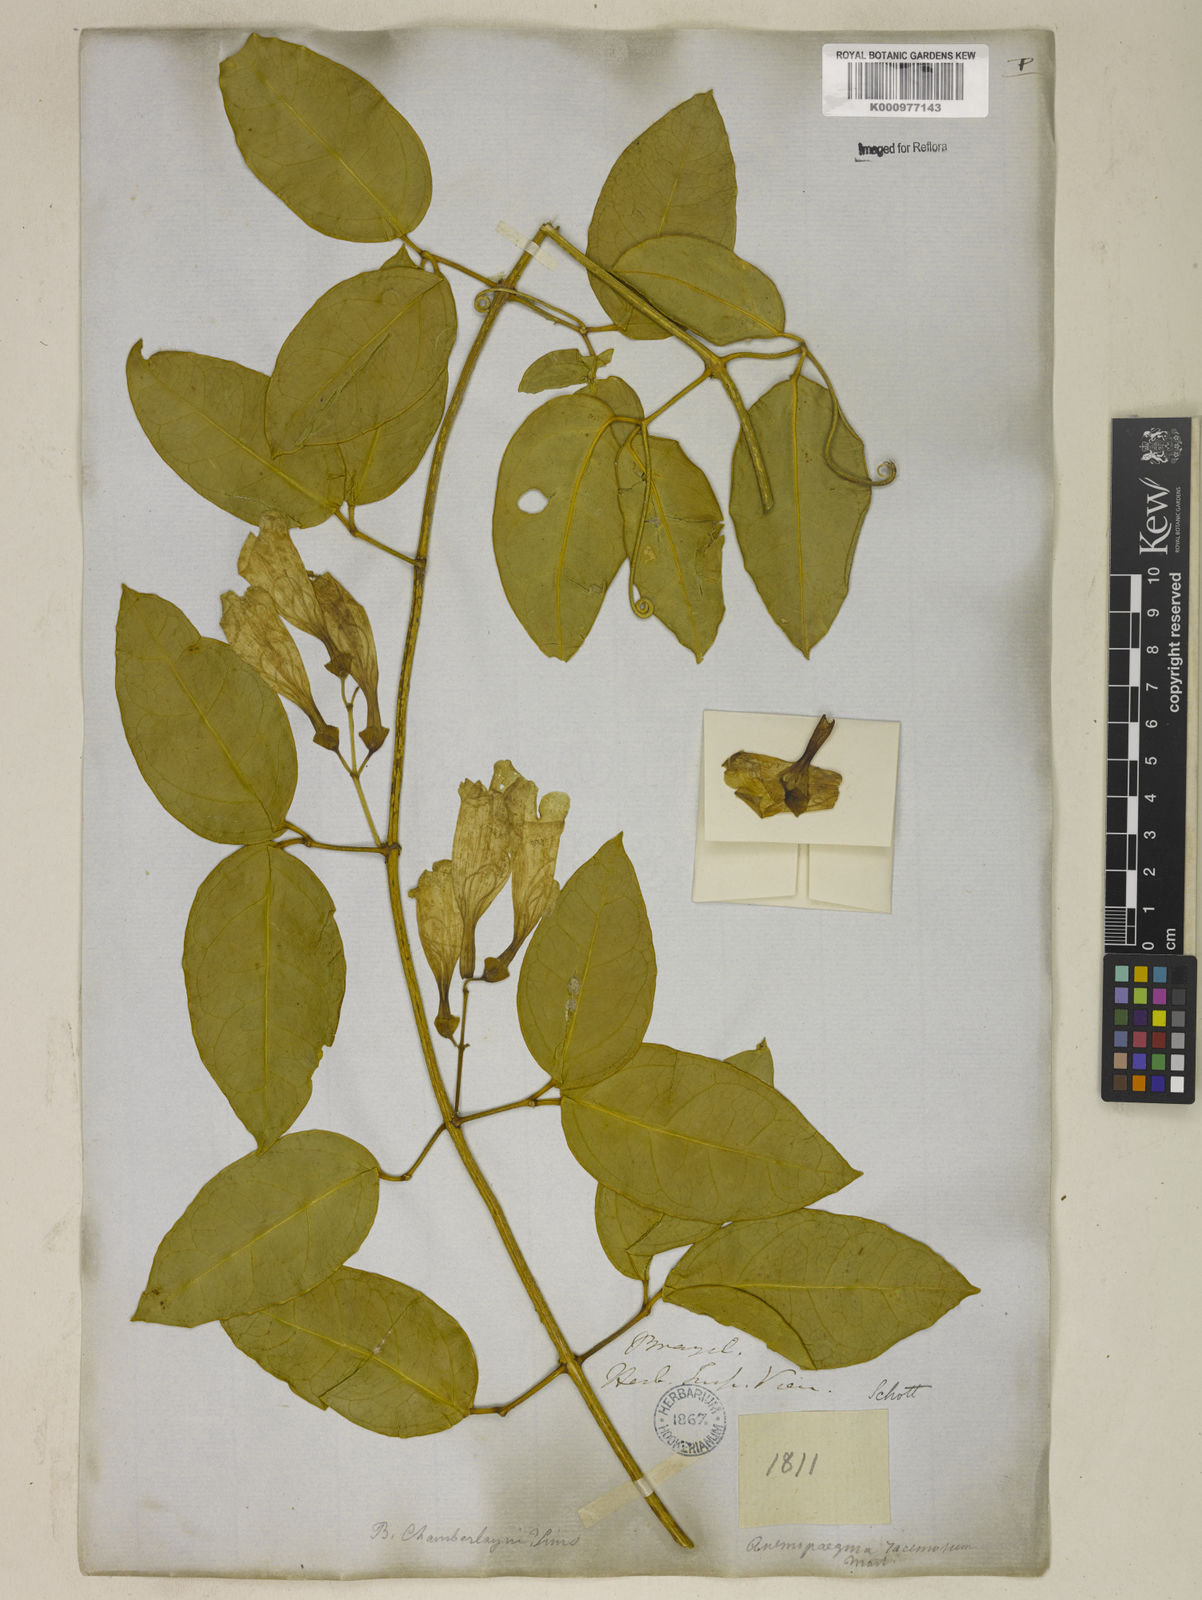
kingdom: Plantae
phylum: Tracheophyta
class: Magnoliopsida
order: Lamiales
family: Bignoniaceae
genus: Anemopaegma
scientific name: Anemopaegma chamberlaynii
